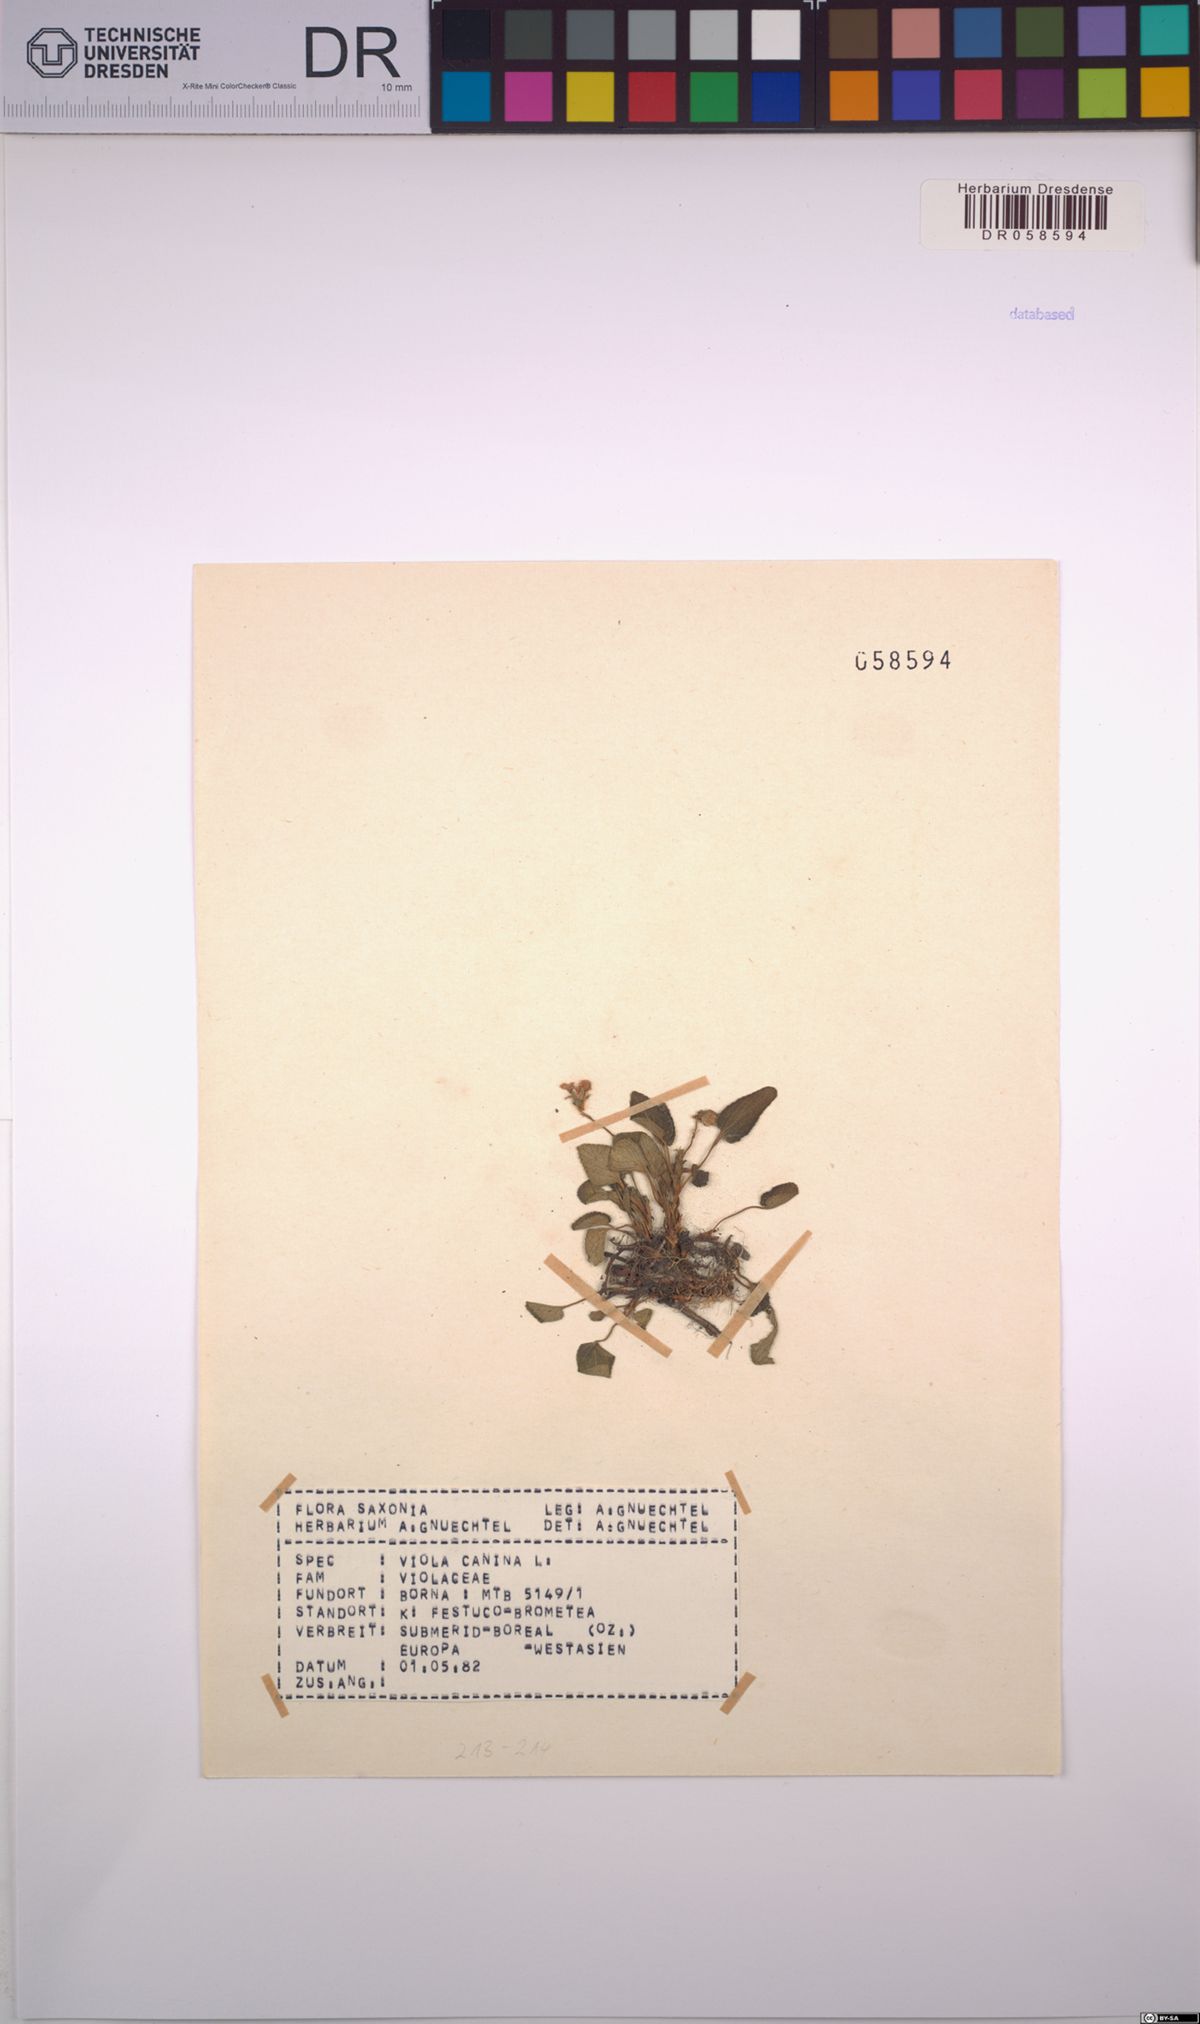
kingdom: Plantae
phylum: Tracheophyta
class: Magnoliopsida
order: Malpighiales
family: Violaceae
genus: Viola
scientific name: Viola canina
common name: Heath dog-violet
